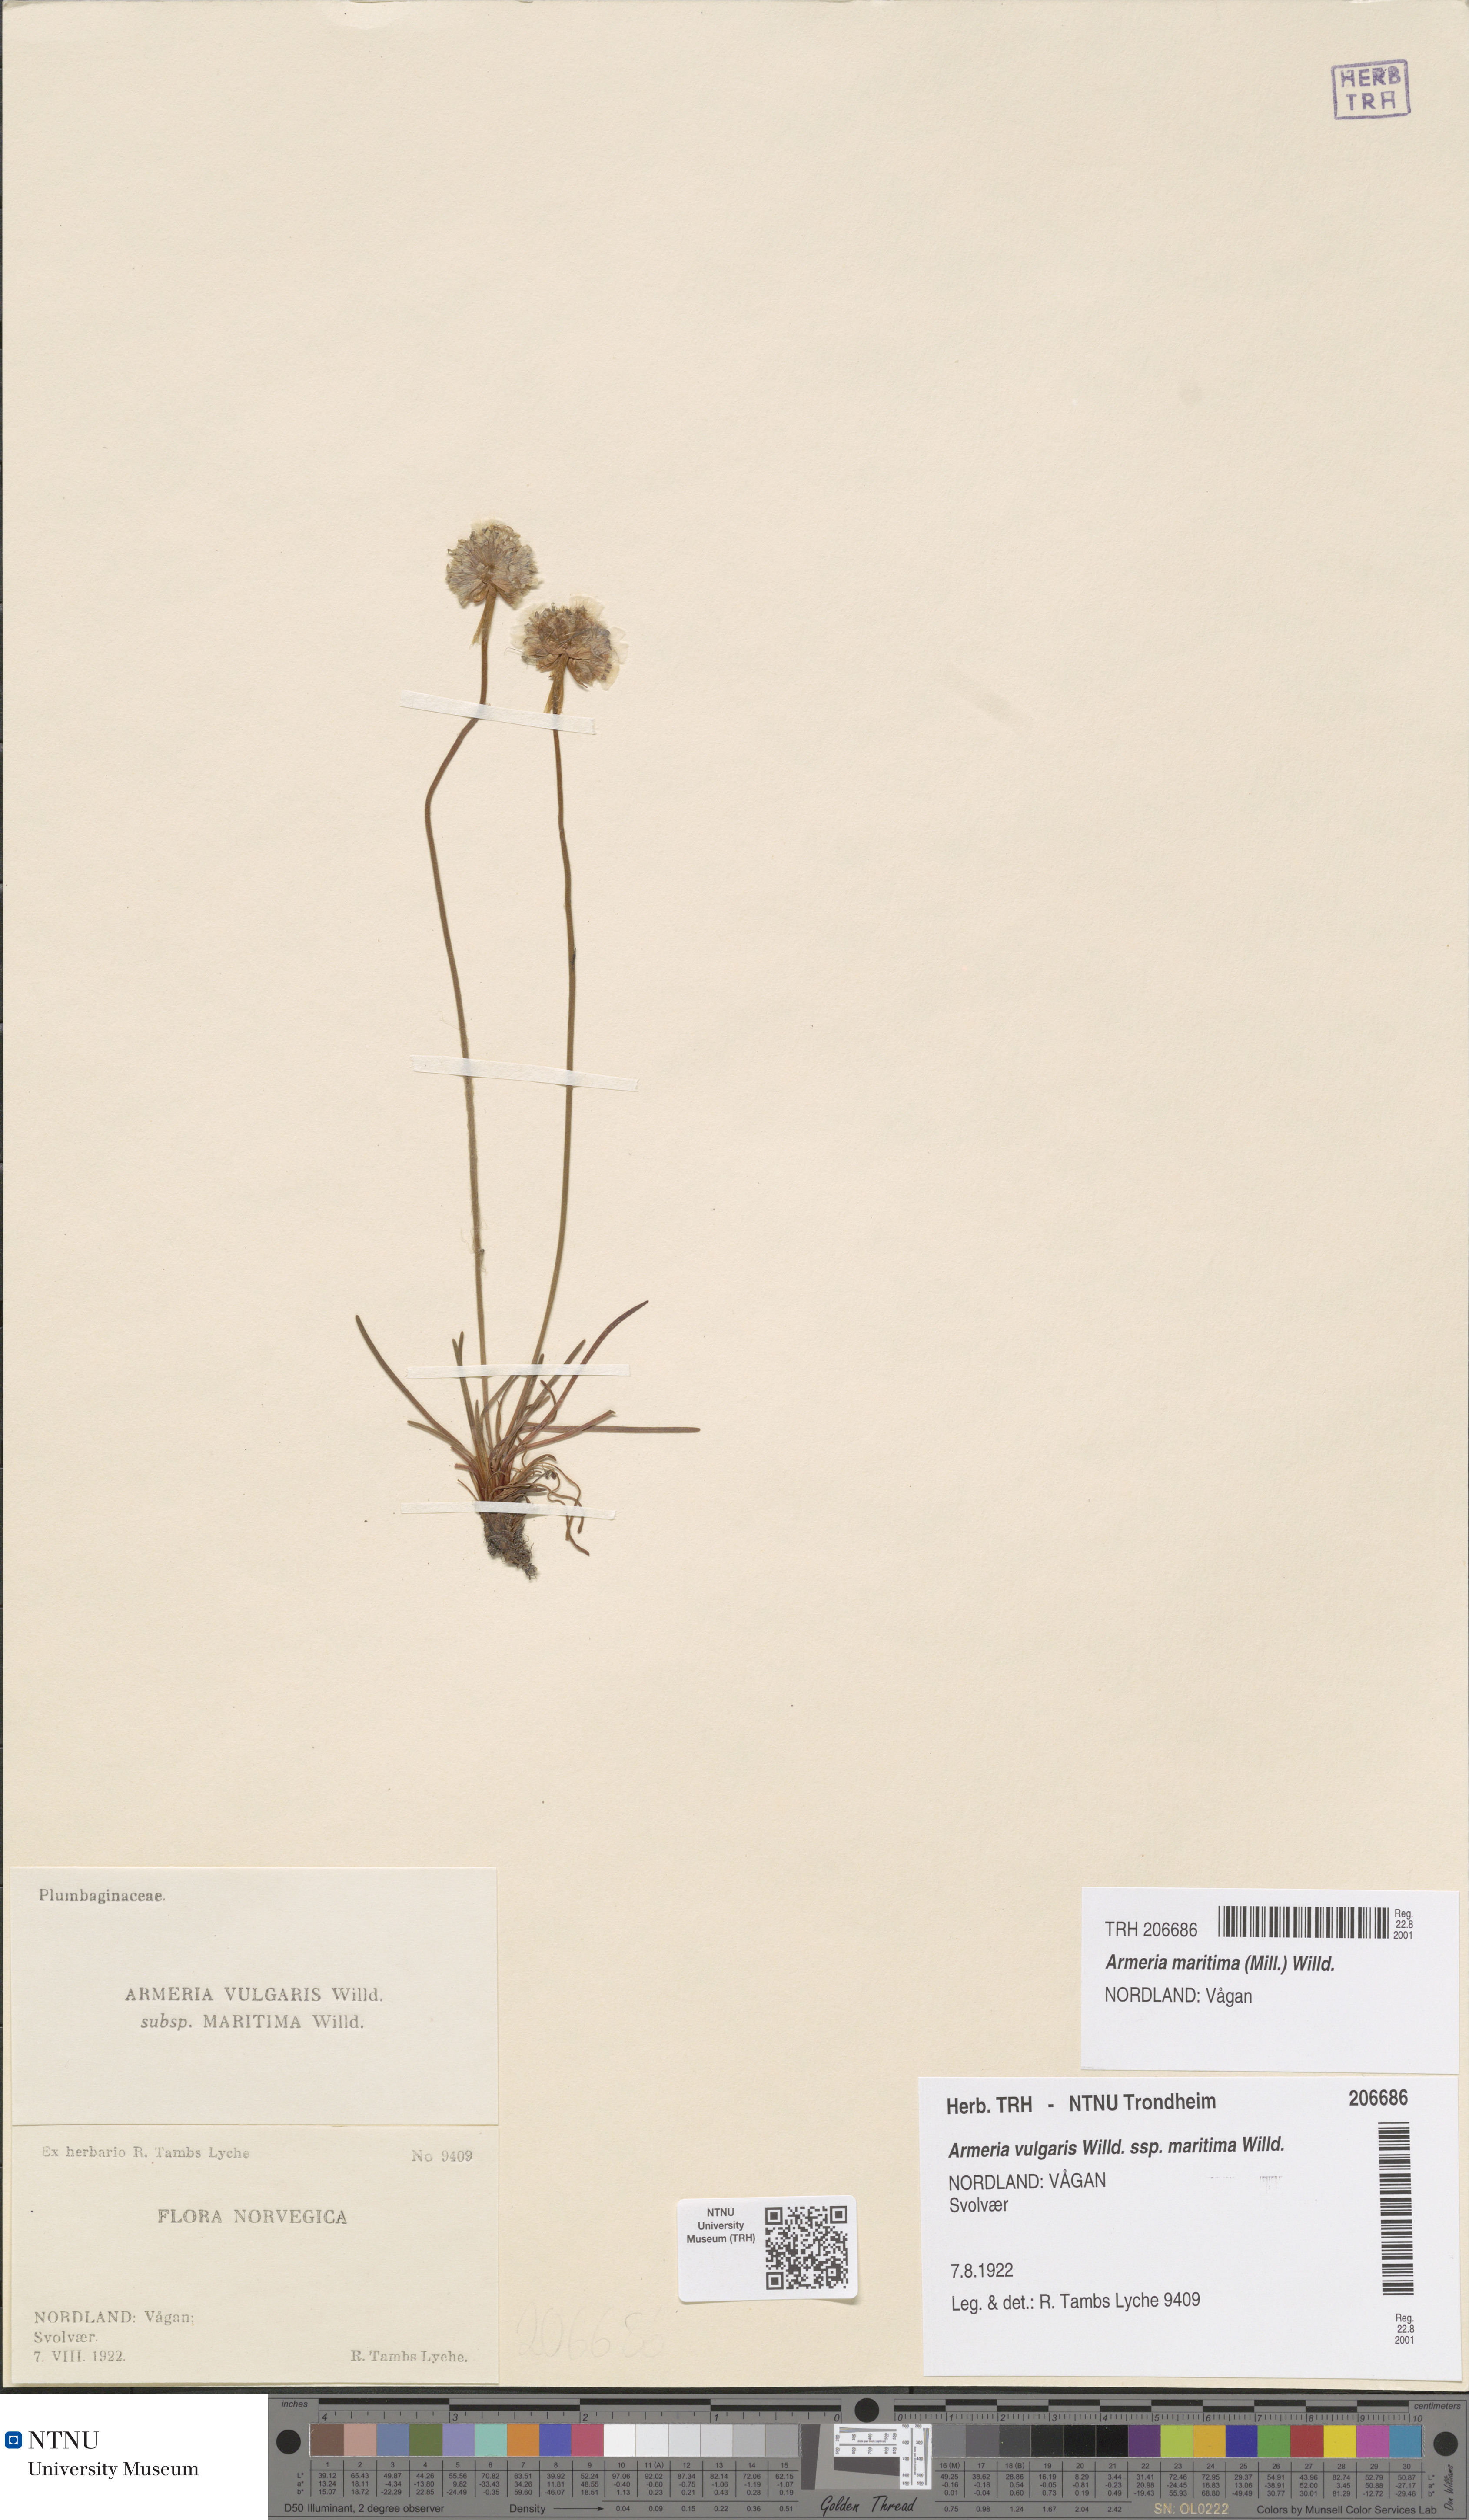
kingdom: Plantae
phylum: Tracheophyta
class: Magnoliopsida
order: Caryophyllales
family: Plumbaginaceae
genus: Armeria
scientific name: Armeria maritima
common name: Thrift
